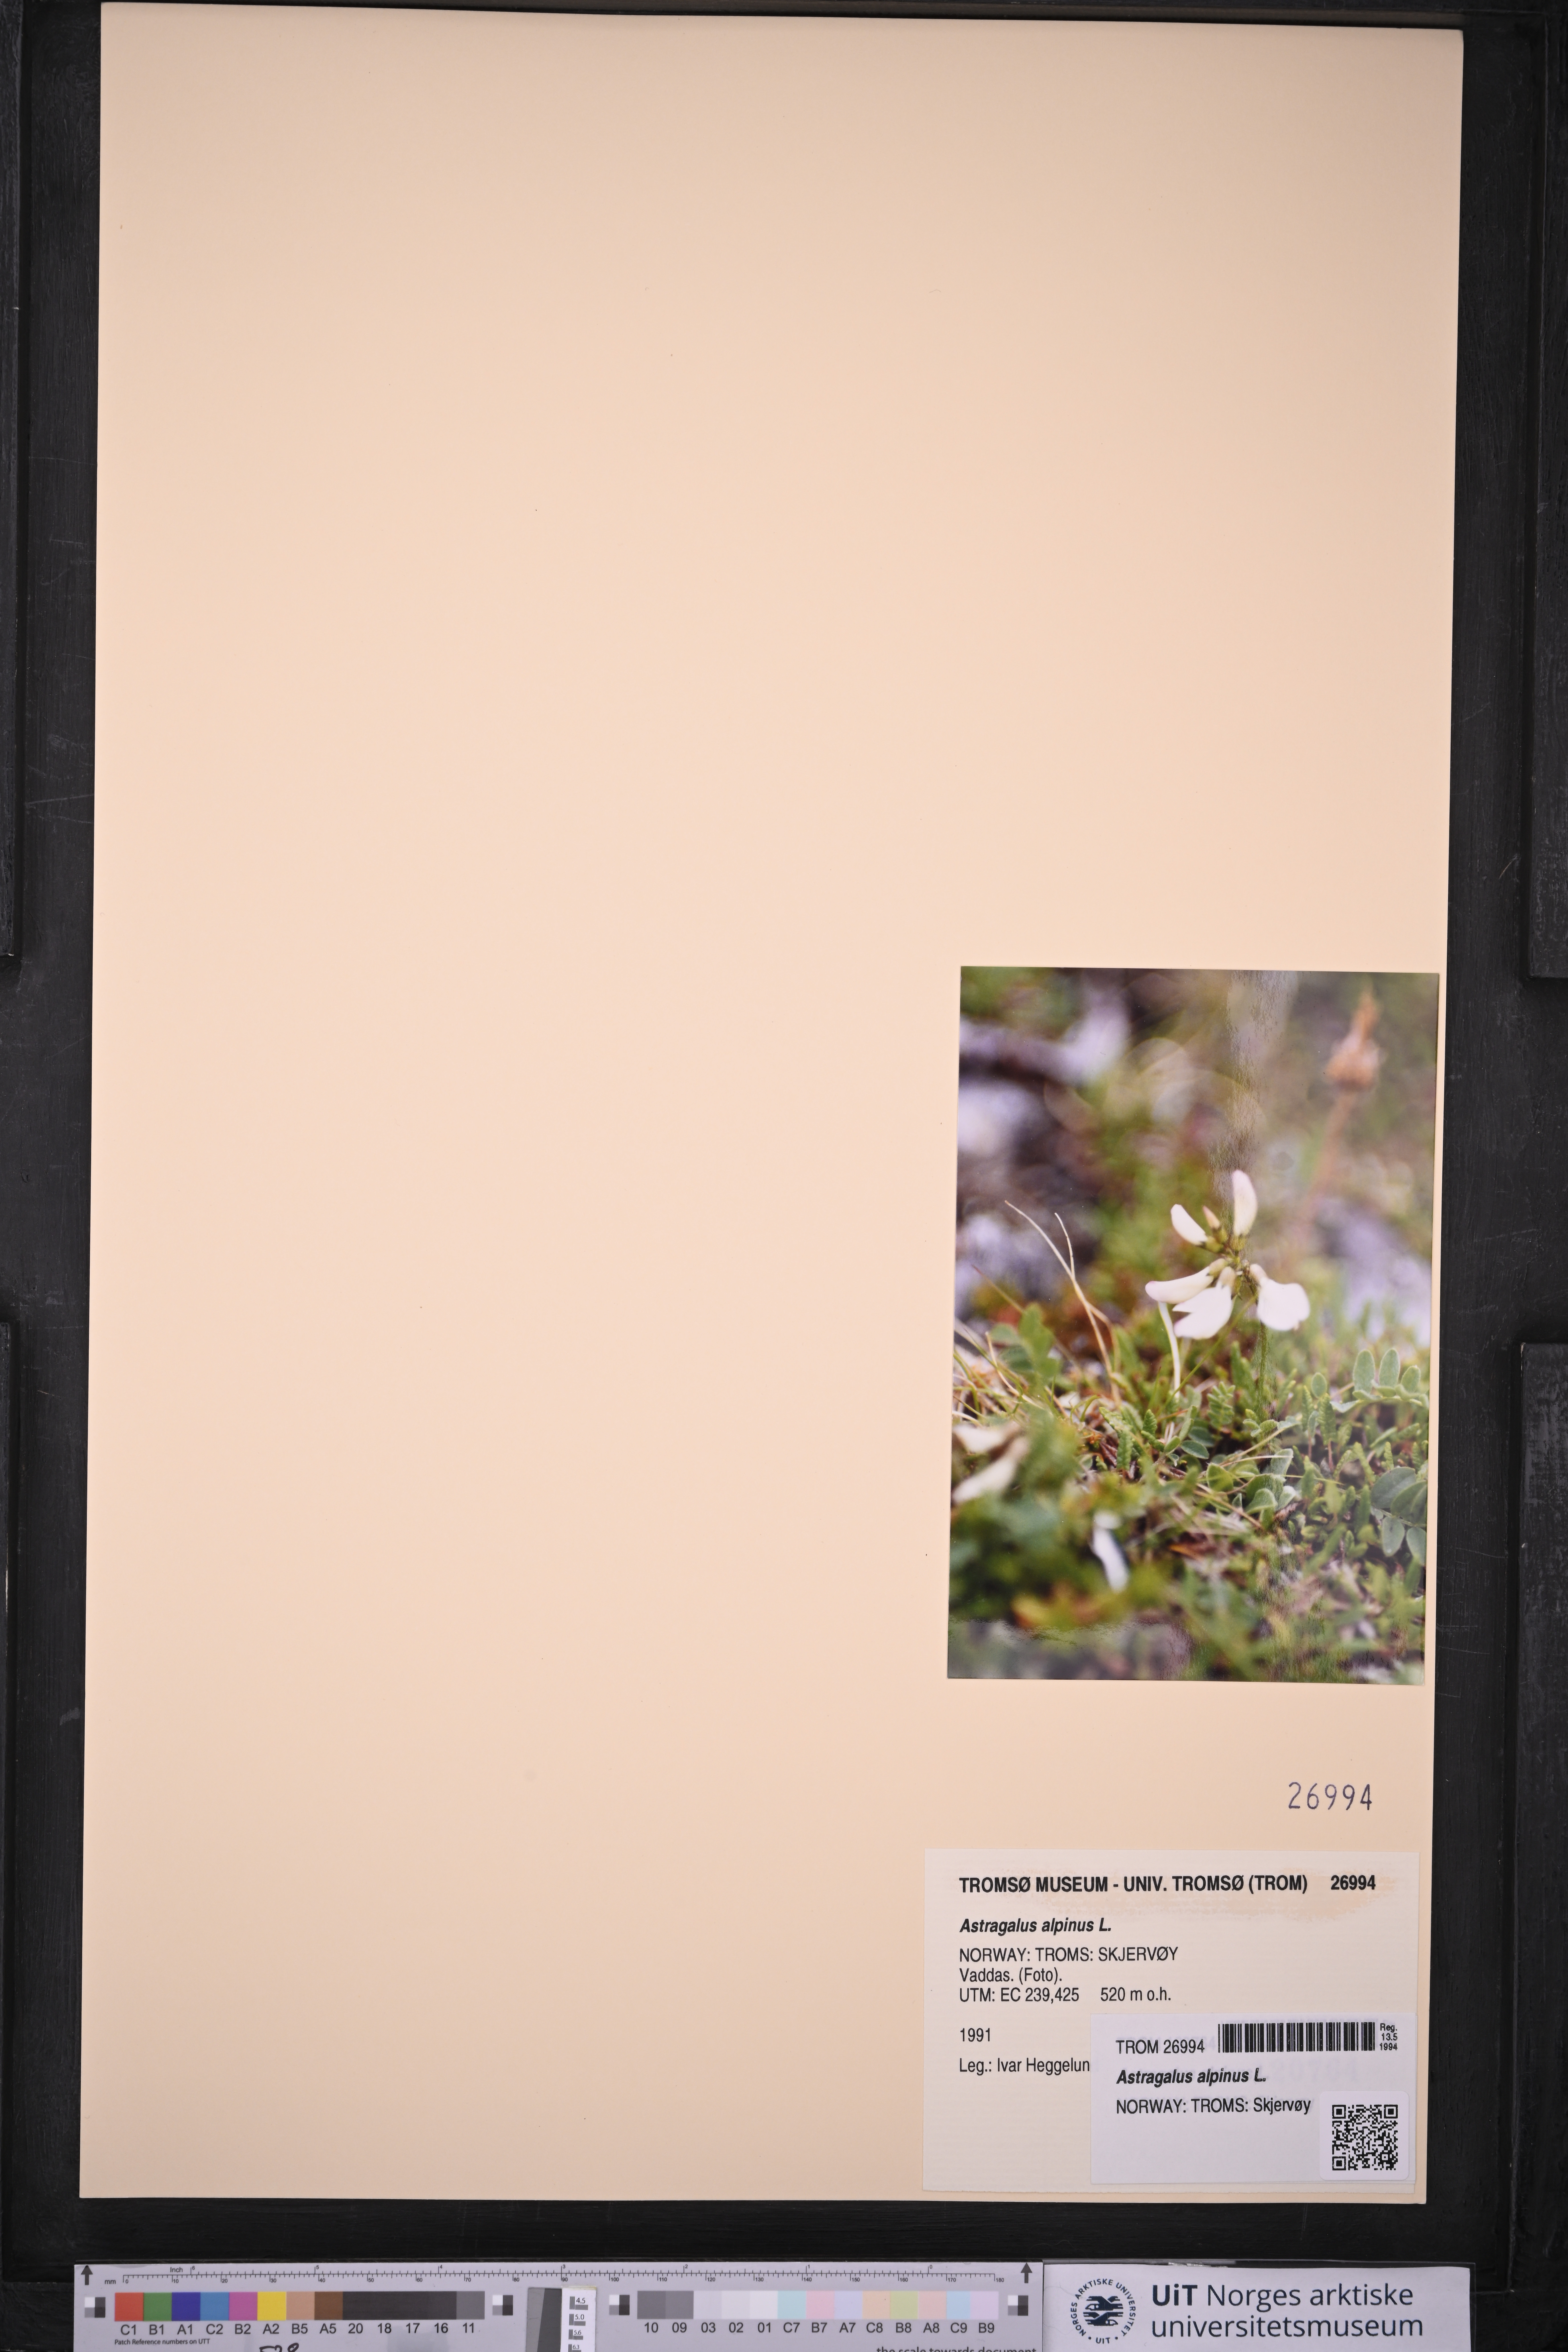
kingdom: Plantae
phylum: Tracheophyta
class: Magnoliopsida
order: Fabales
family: Fabaceae
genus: Astragalus
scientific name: Astragalus alpinus
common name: Alpine milk-vetch
